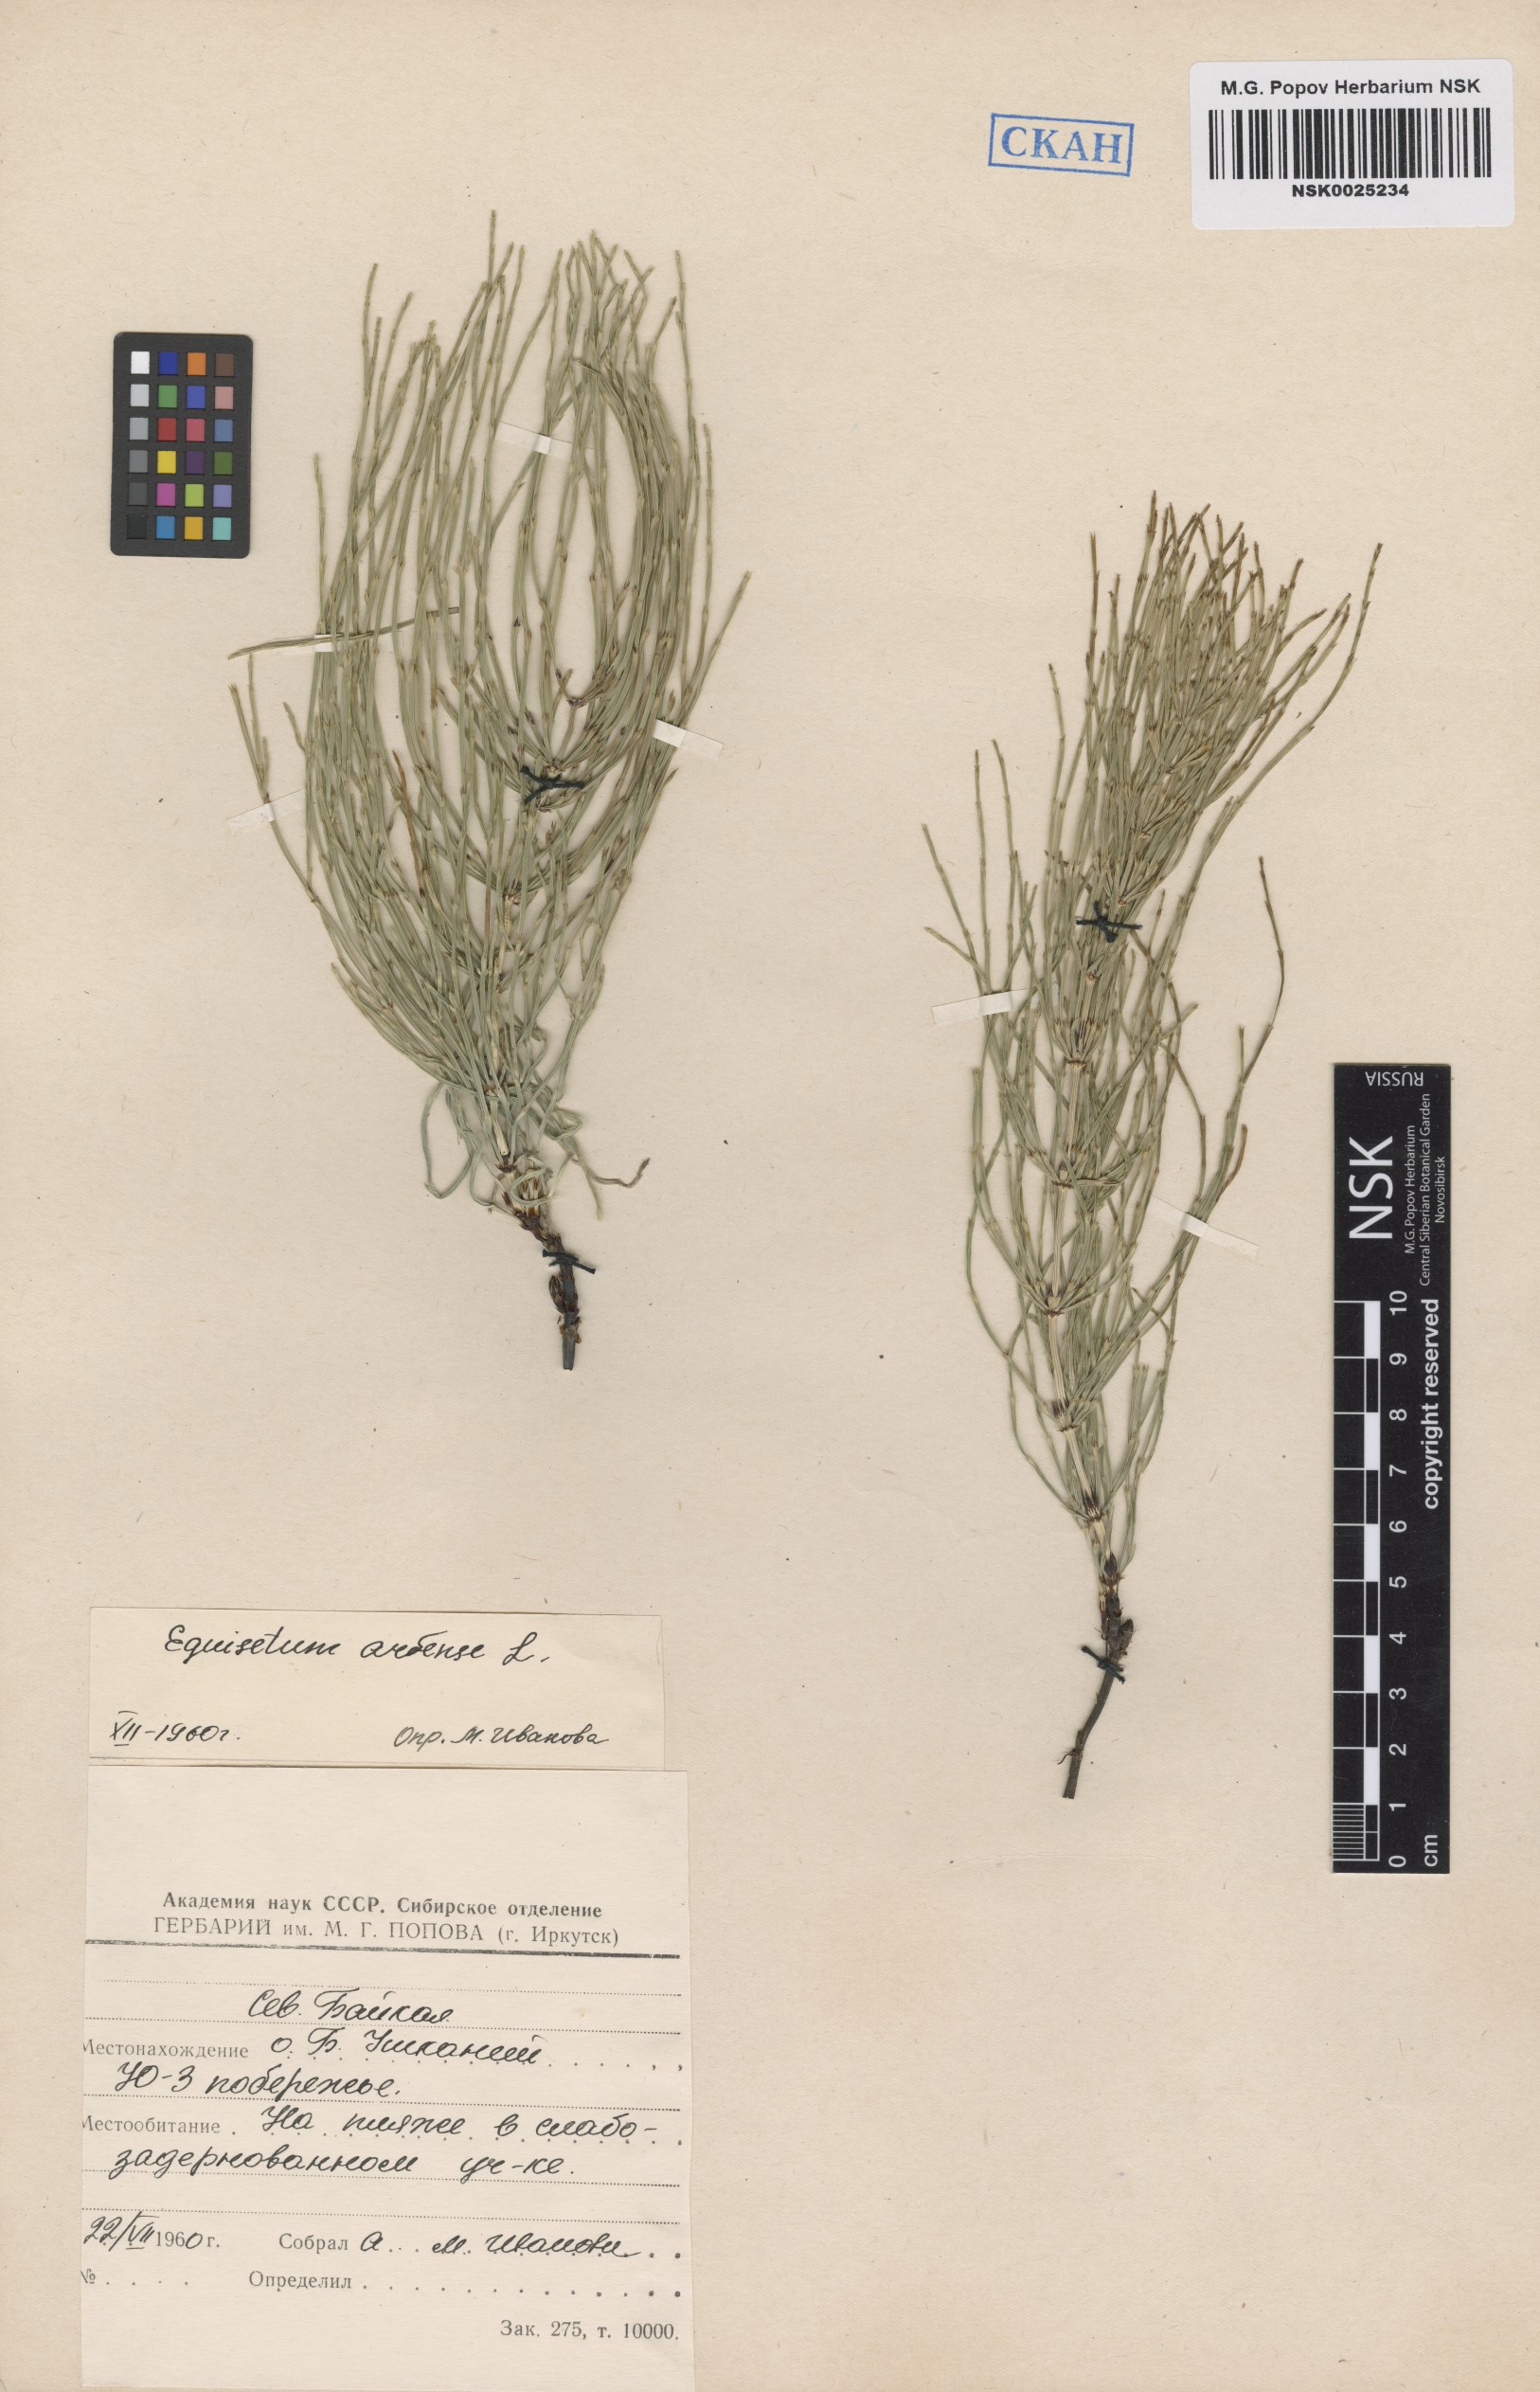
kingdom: Plantae
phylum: Tracheophyta
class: Polypodiopsida
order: Equisetales
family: Equisetaceae
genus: Equisetum
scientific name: Equisetum arvense
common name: Field horsetail
